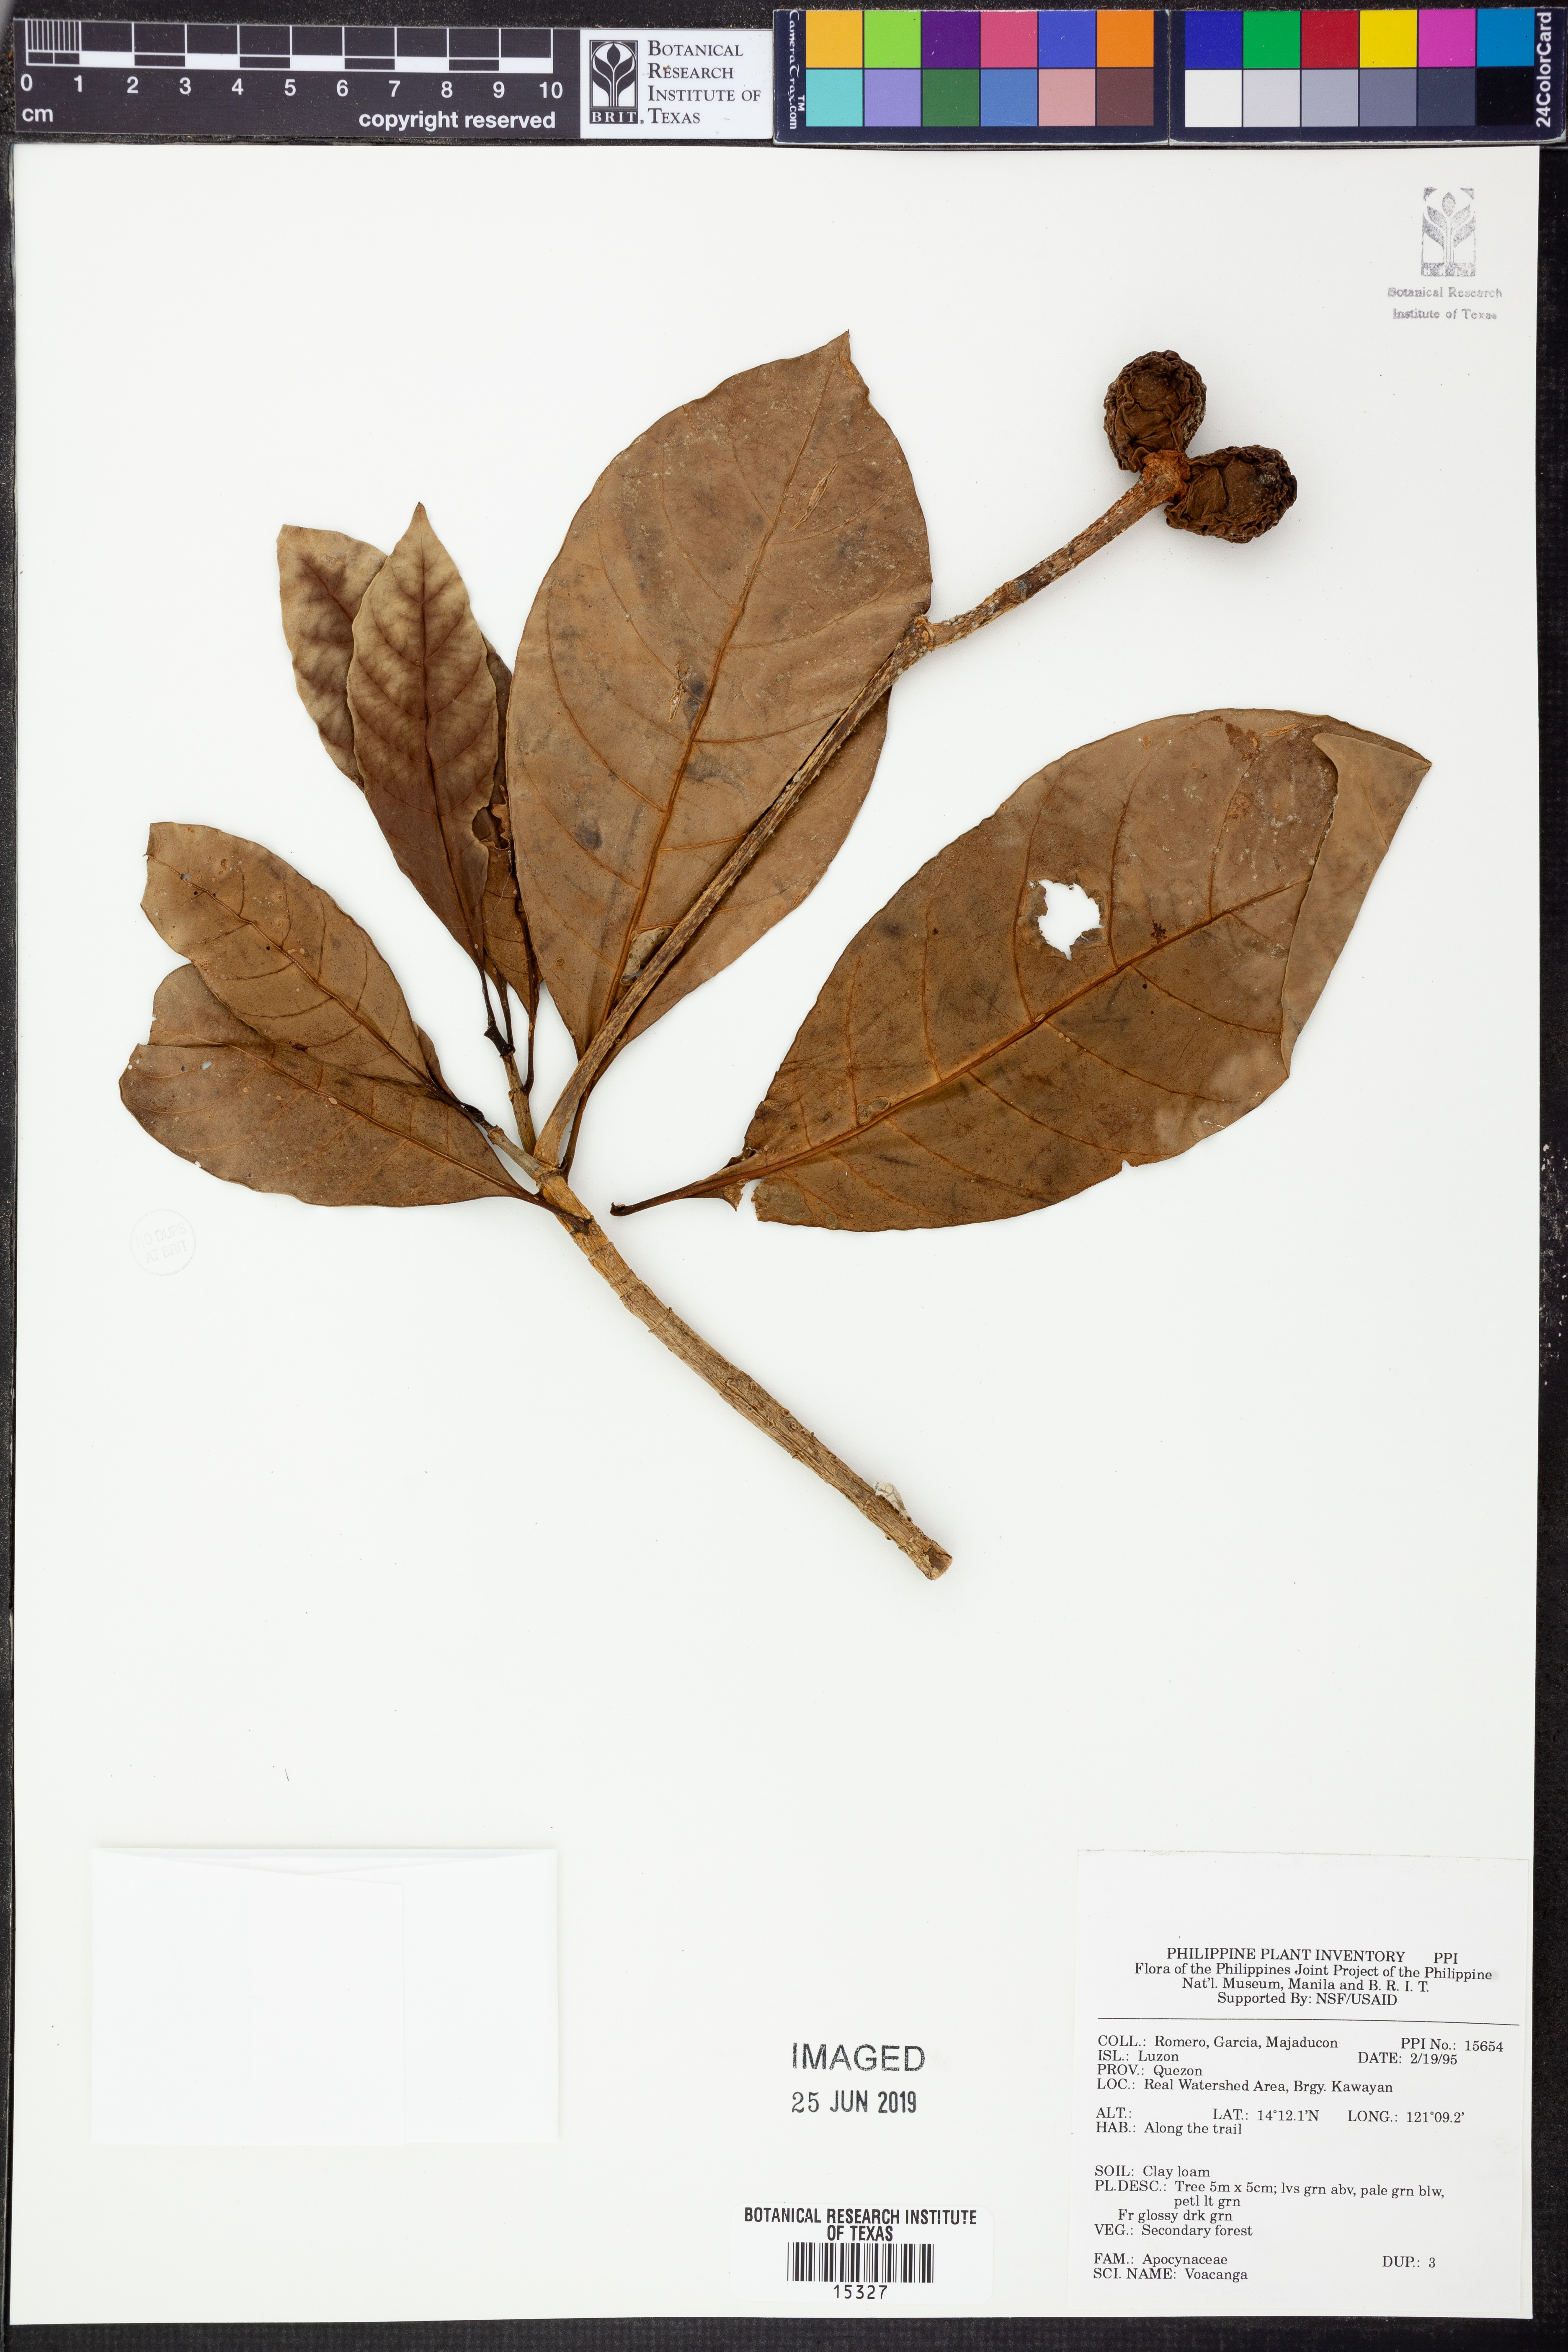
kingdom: Plantae
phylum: Tracheophyta
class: Magnoliopsida
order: Gentianales
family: Apocynaceae
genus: Voacanga
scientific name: Voacanga
